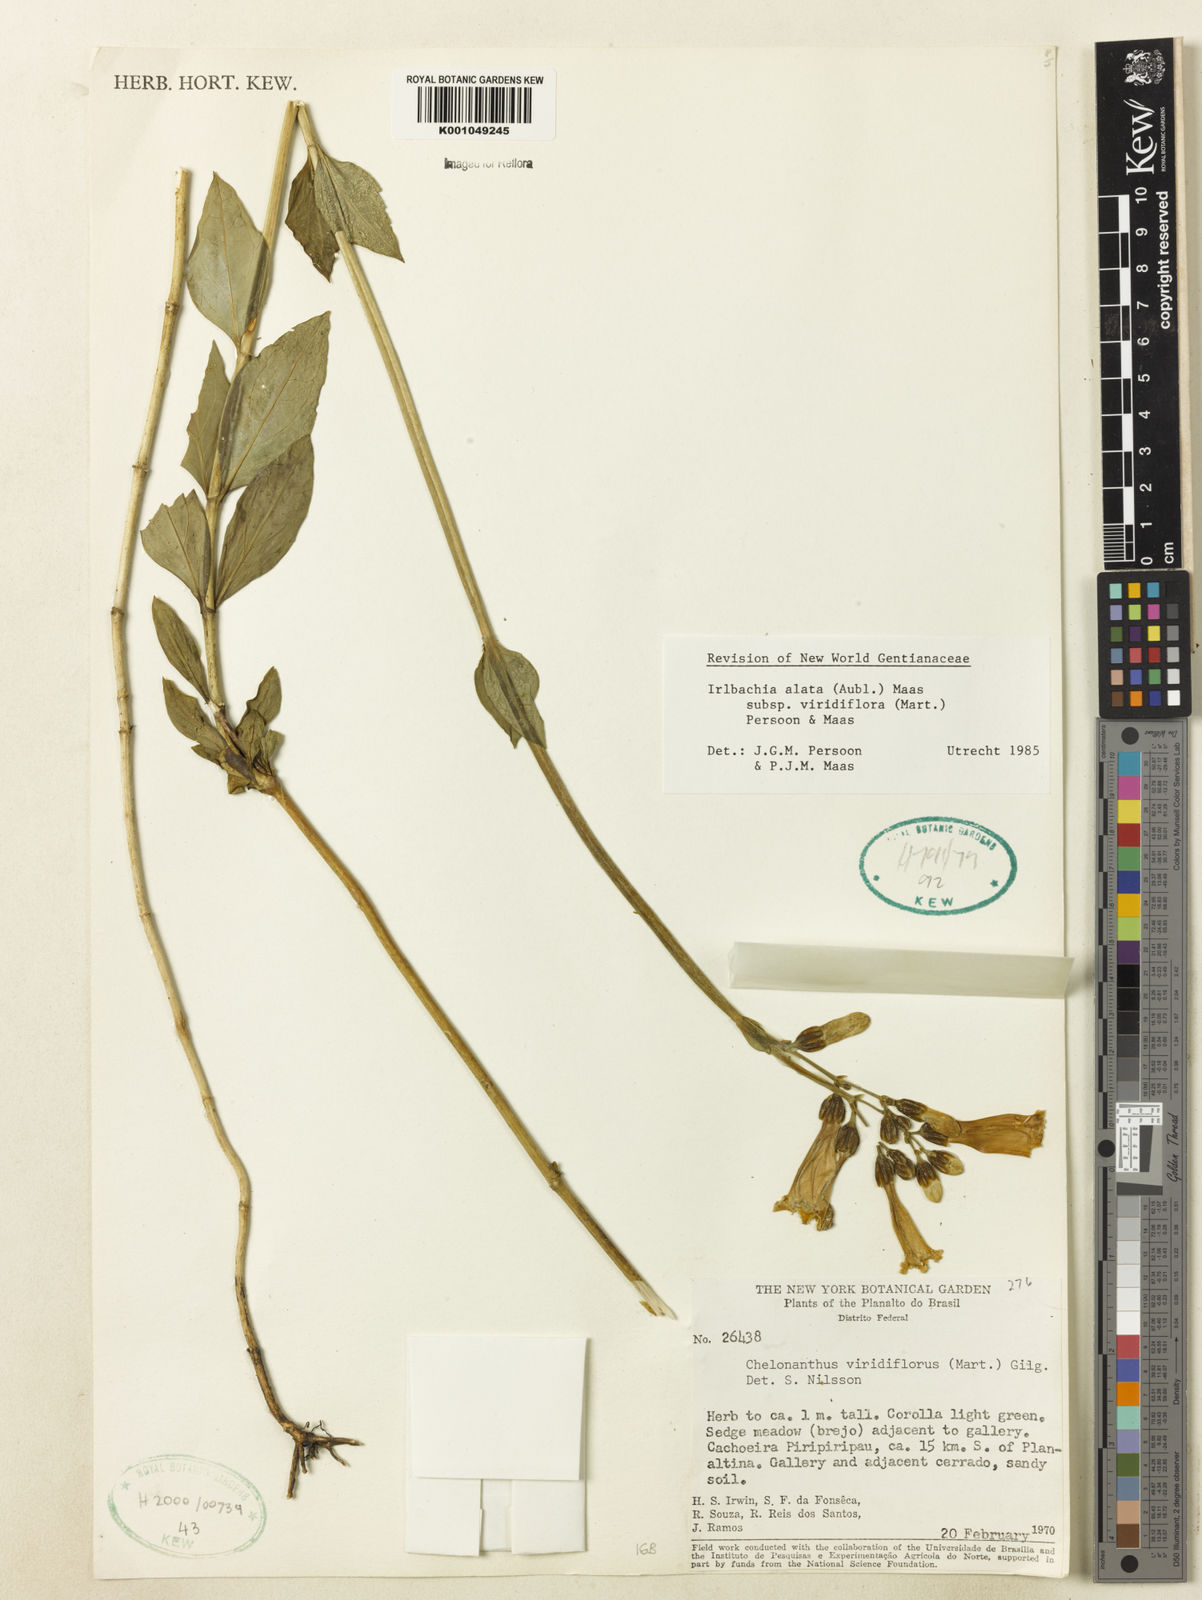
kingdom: Plantae
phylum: Tracheophyta
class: Magnoliopsida
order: Gentianales
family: Gentianaceae
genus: Chelonanthus
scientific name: Chelonanthus viridiflorus
